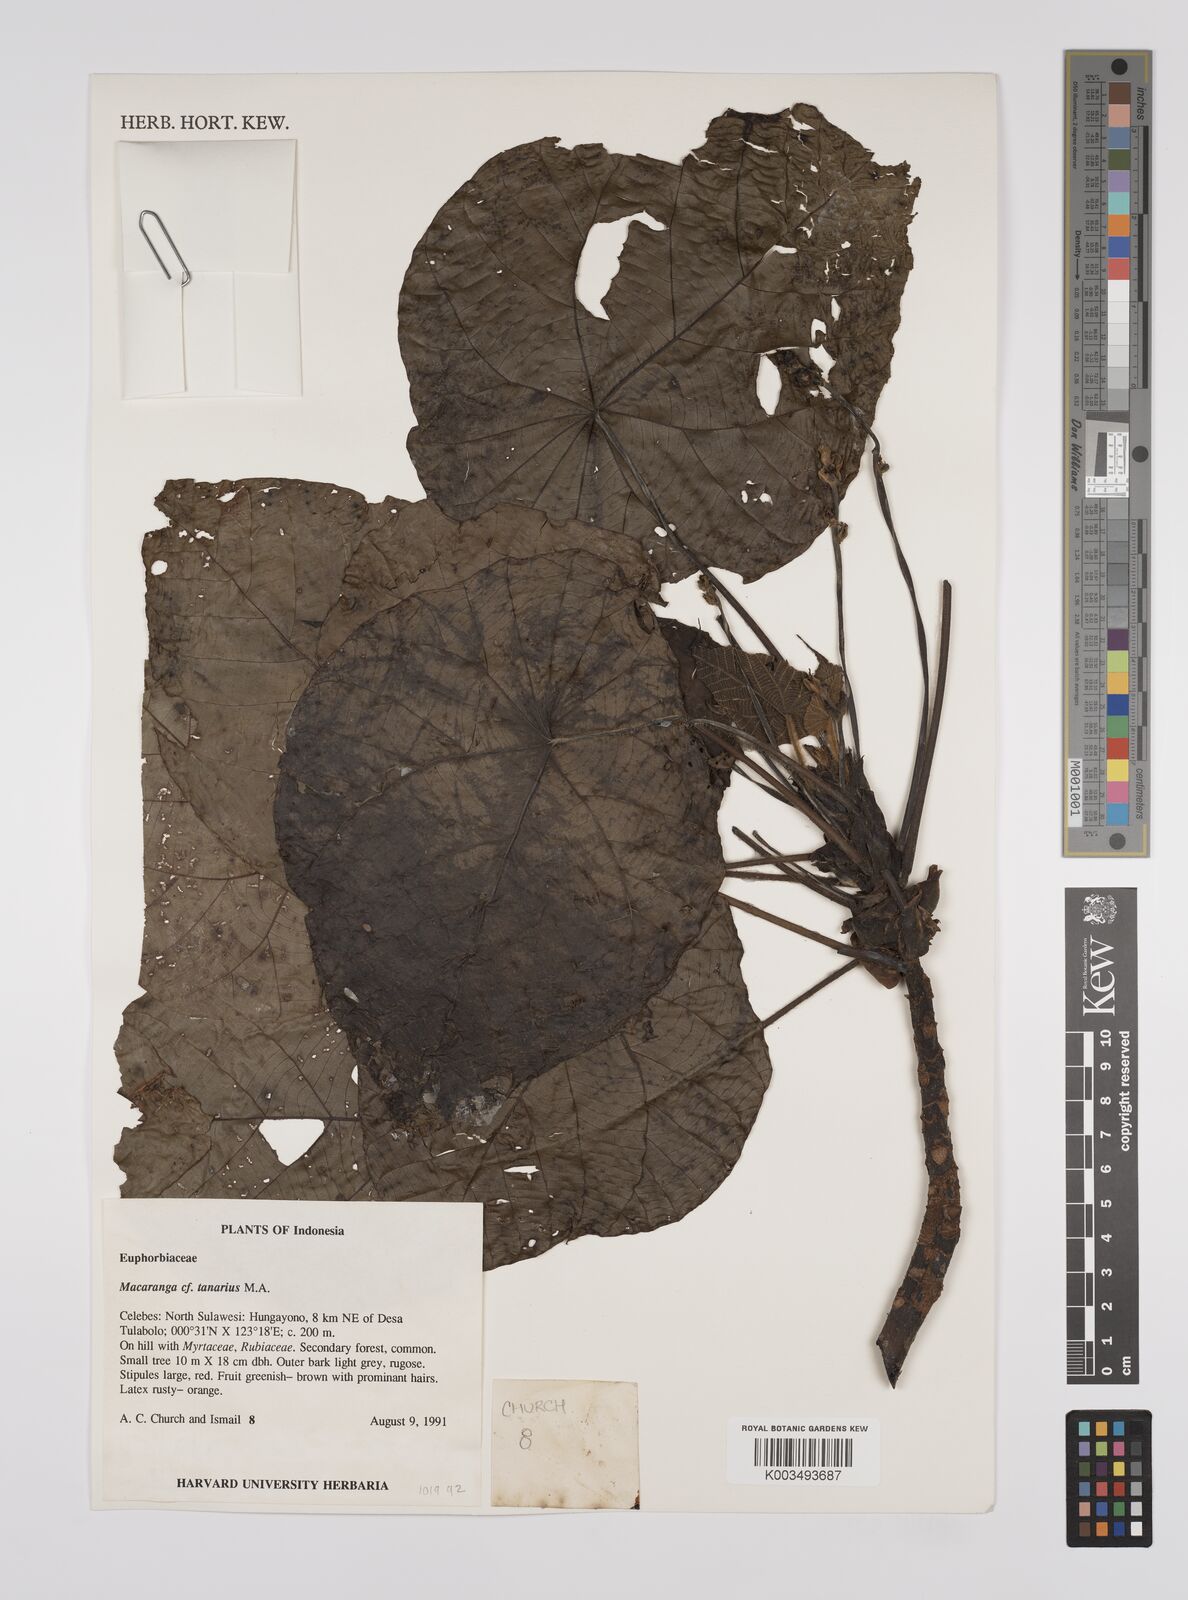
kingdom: Plantae
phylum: Tracheophyta
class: Magnoliopsida
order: Malpighiales
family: Euphorbiaceae
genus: Macaranga
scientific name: Macaranga tanarius
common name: Parasol leaf tree
